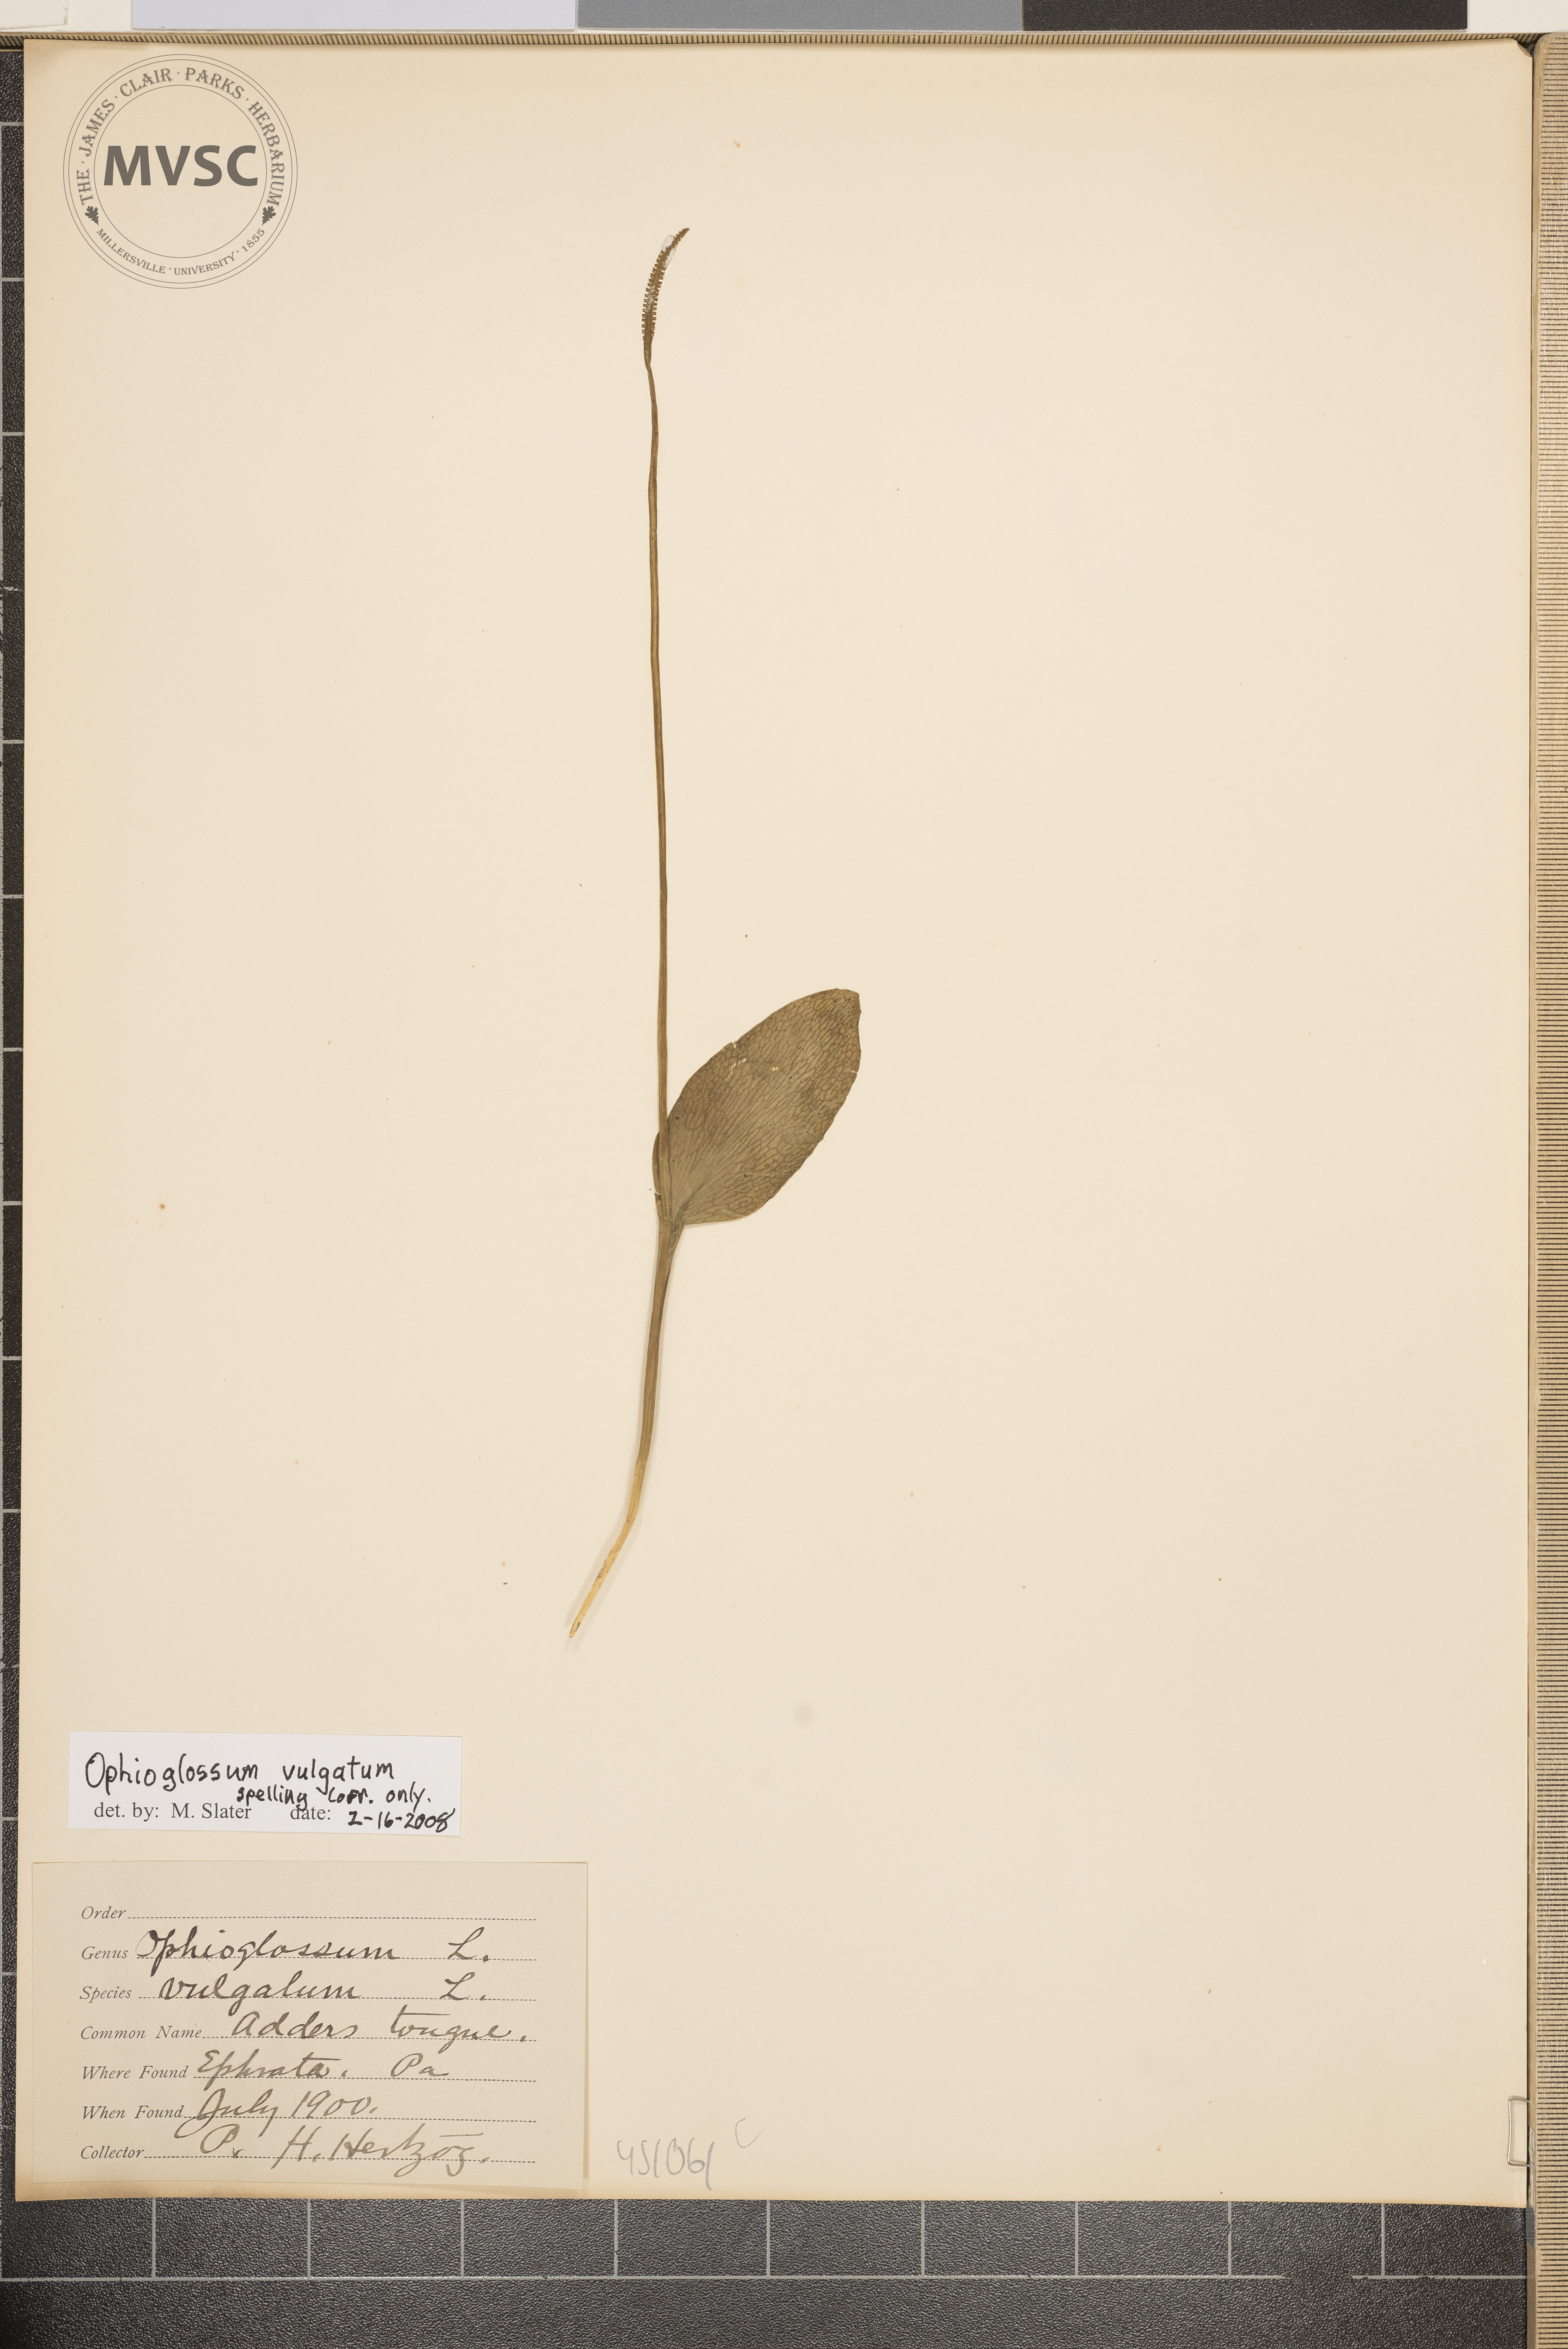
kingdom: Plantae
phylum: Tracheophyta
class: Polypodiopsida
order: Ophioglossales
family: Ophioglossaceae
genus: Ophioglossum
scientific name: Ophioglossum vulgatum
